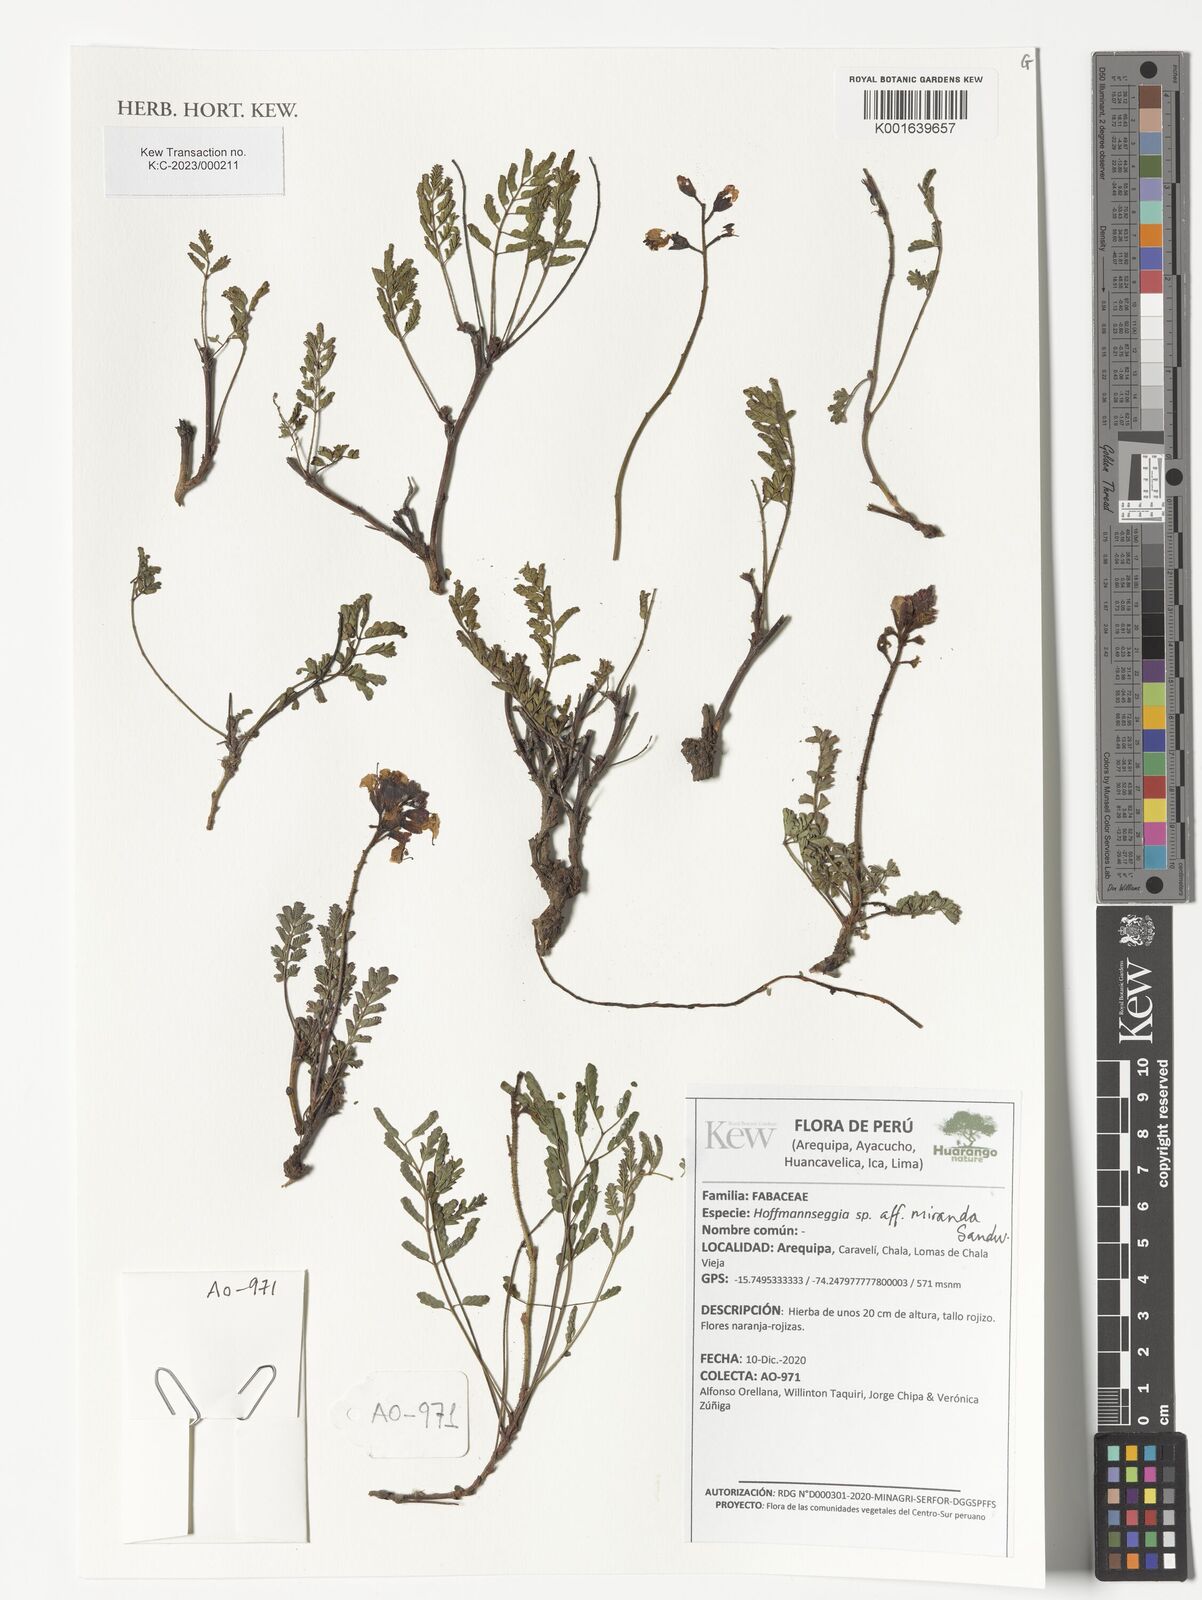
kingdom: Plantae
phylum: Tracheophyta
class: Magnoliopsida
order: Fabales
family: Fabaceae
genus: Hoffmannseggia
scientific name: Hoffmannseggia miranda
